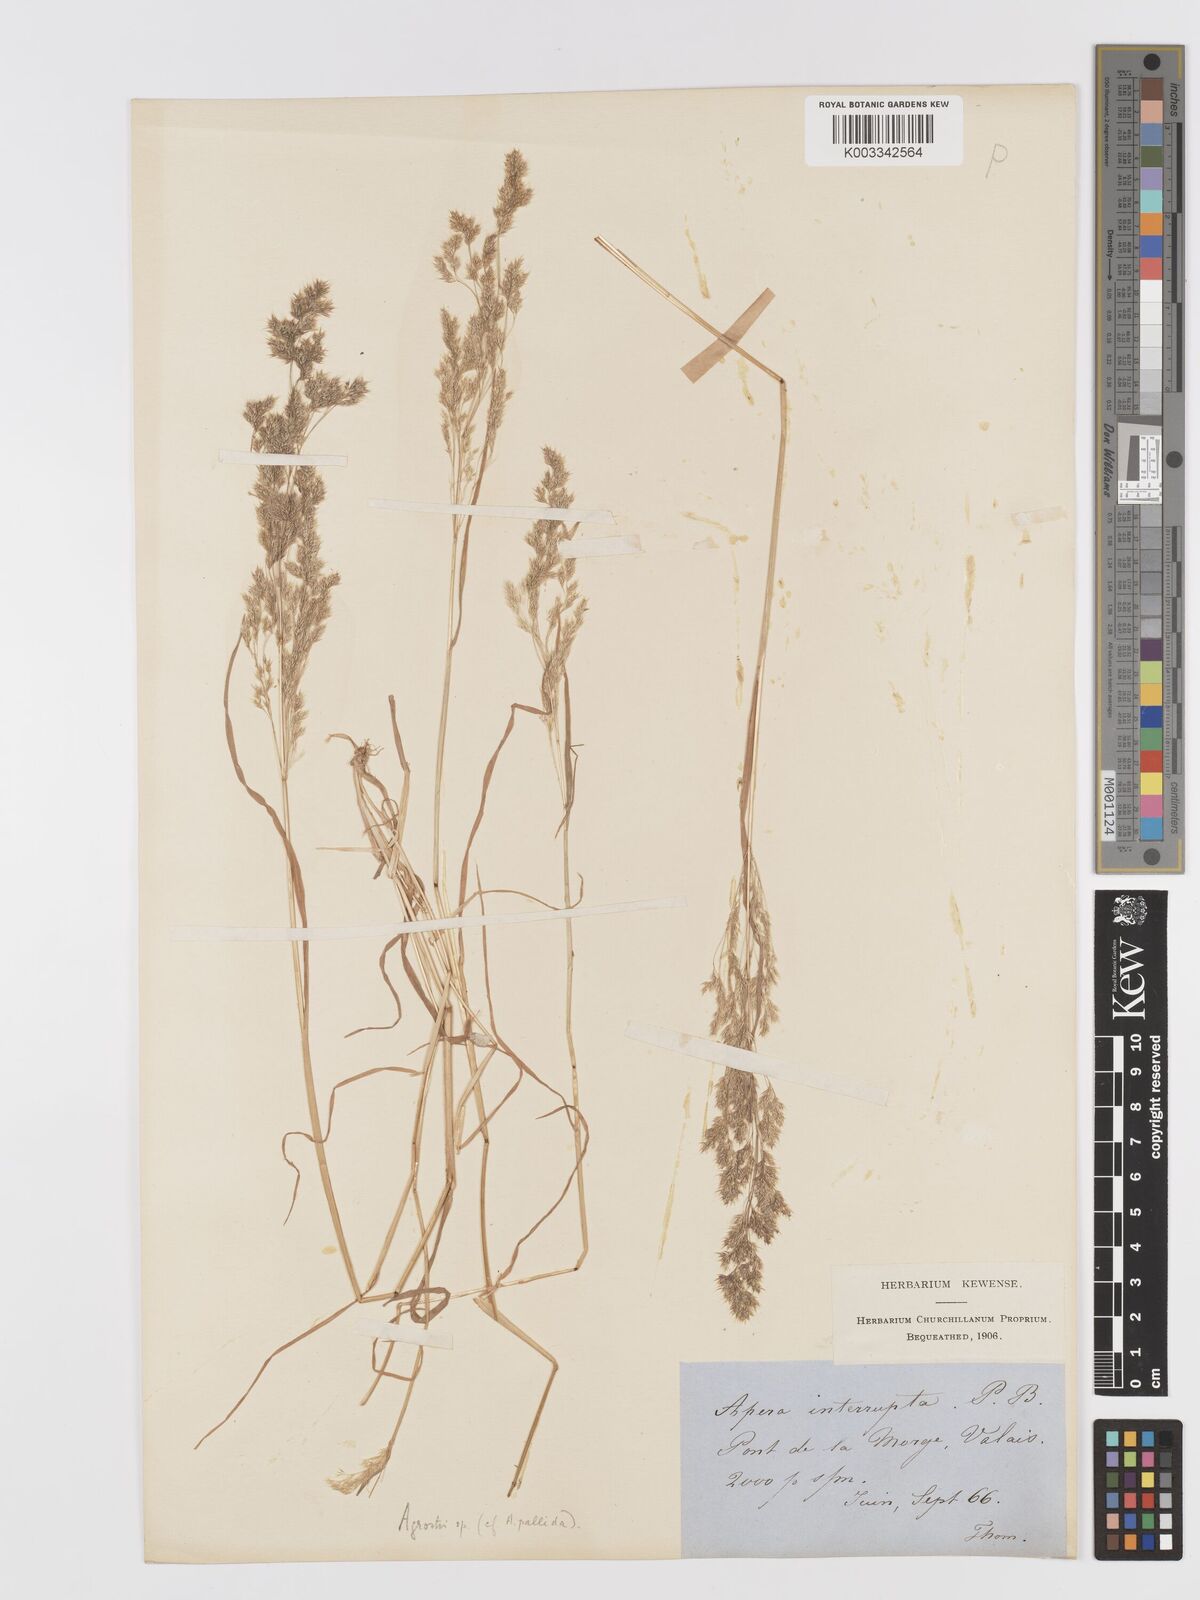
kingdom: Plantae
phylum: Tracheophyta
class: Liliopsida
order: Poales
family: Poaceae
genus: Agrostis
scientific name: Agrostis
